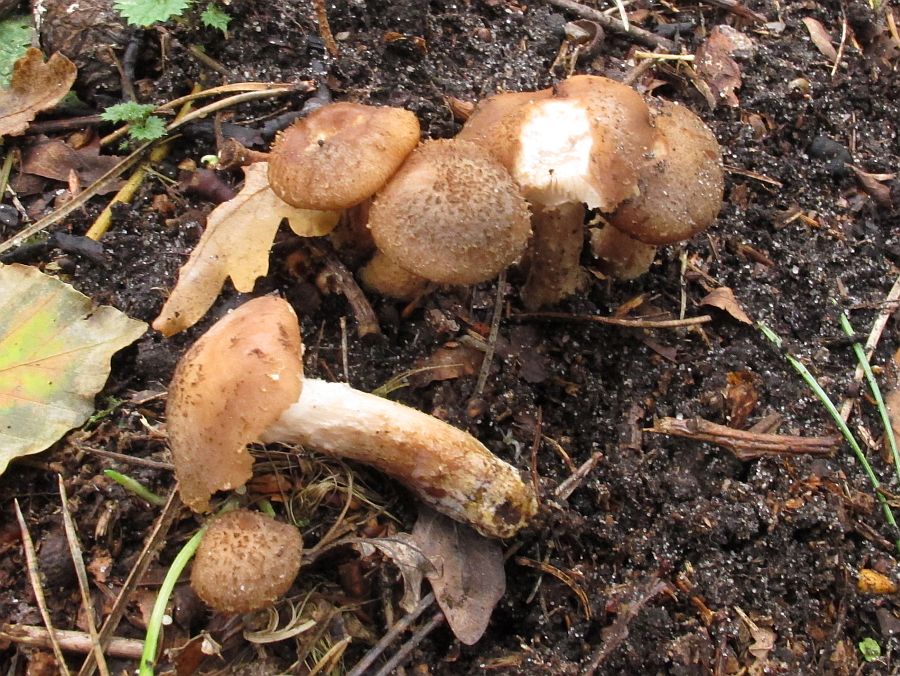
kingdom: Fungi
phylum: Basidiomycota
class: Agaricomycetes
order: Agaricales
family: Physalacriaceae
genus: Armillaria
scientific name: Armillaria ostoyae
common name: mørk honningsvamp
